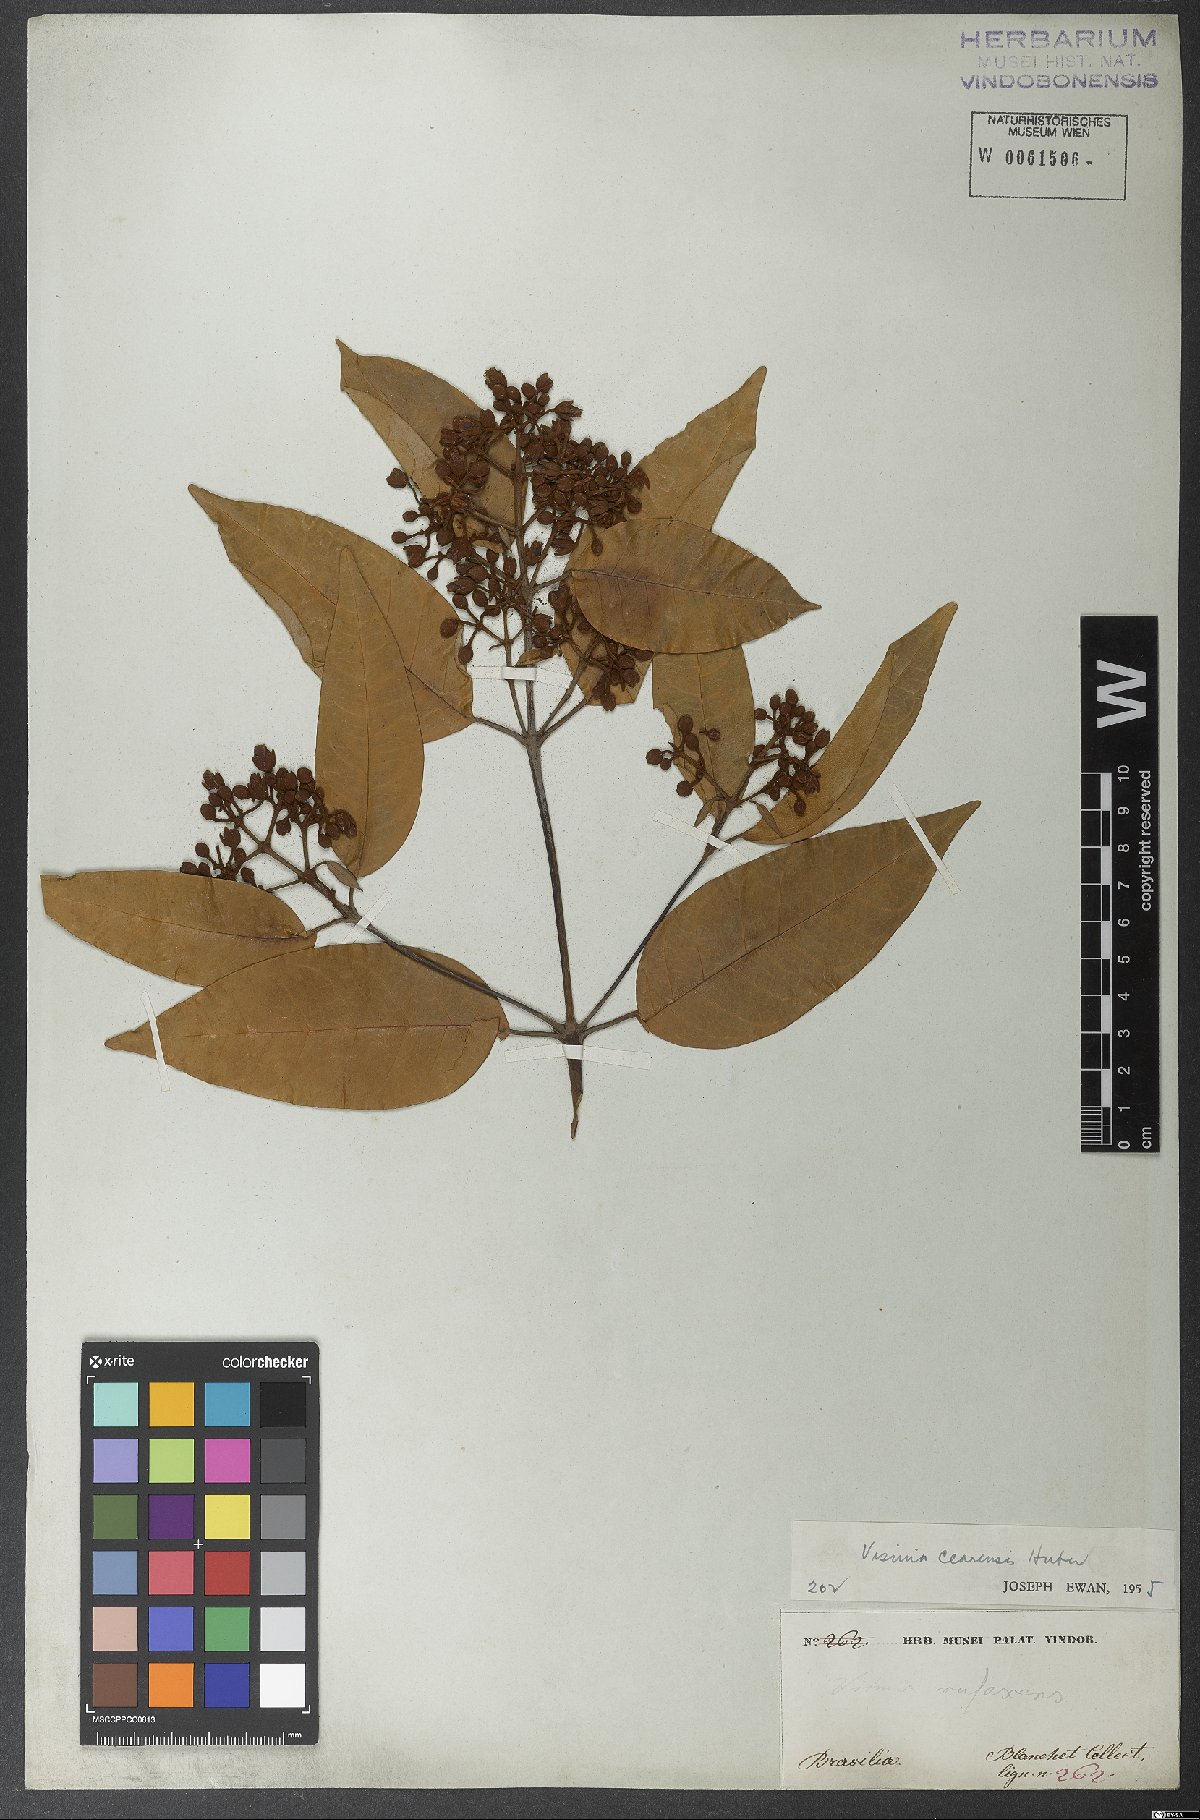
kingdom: Plantae
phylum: Tracheophyta
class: Magnoliopsida
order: Malpighiales
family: Hypericaceae
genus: Vismia
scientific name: Vismia guianensis
